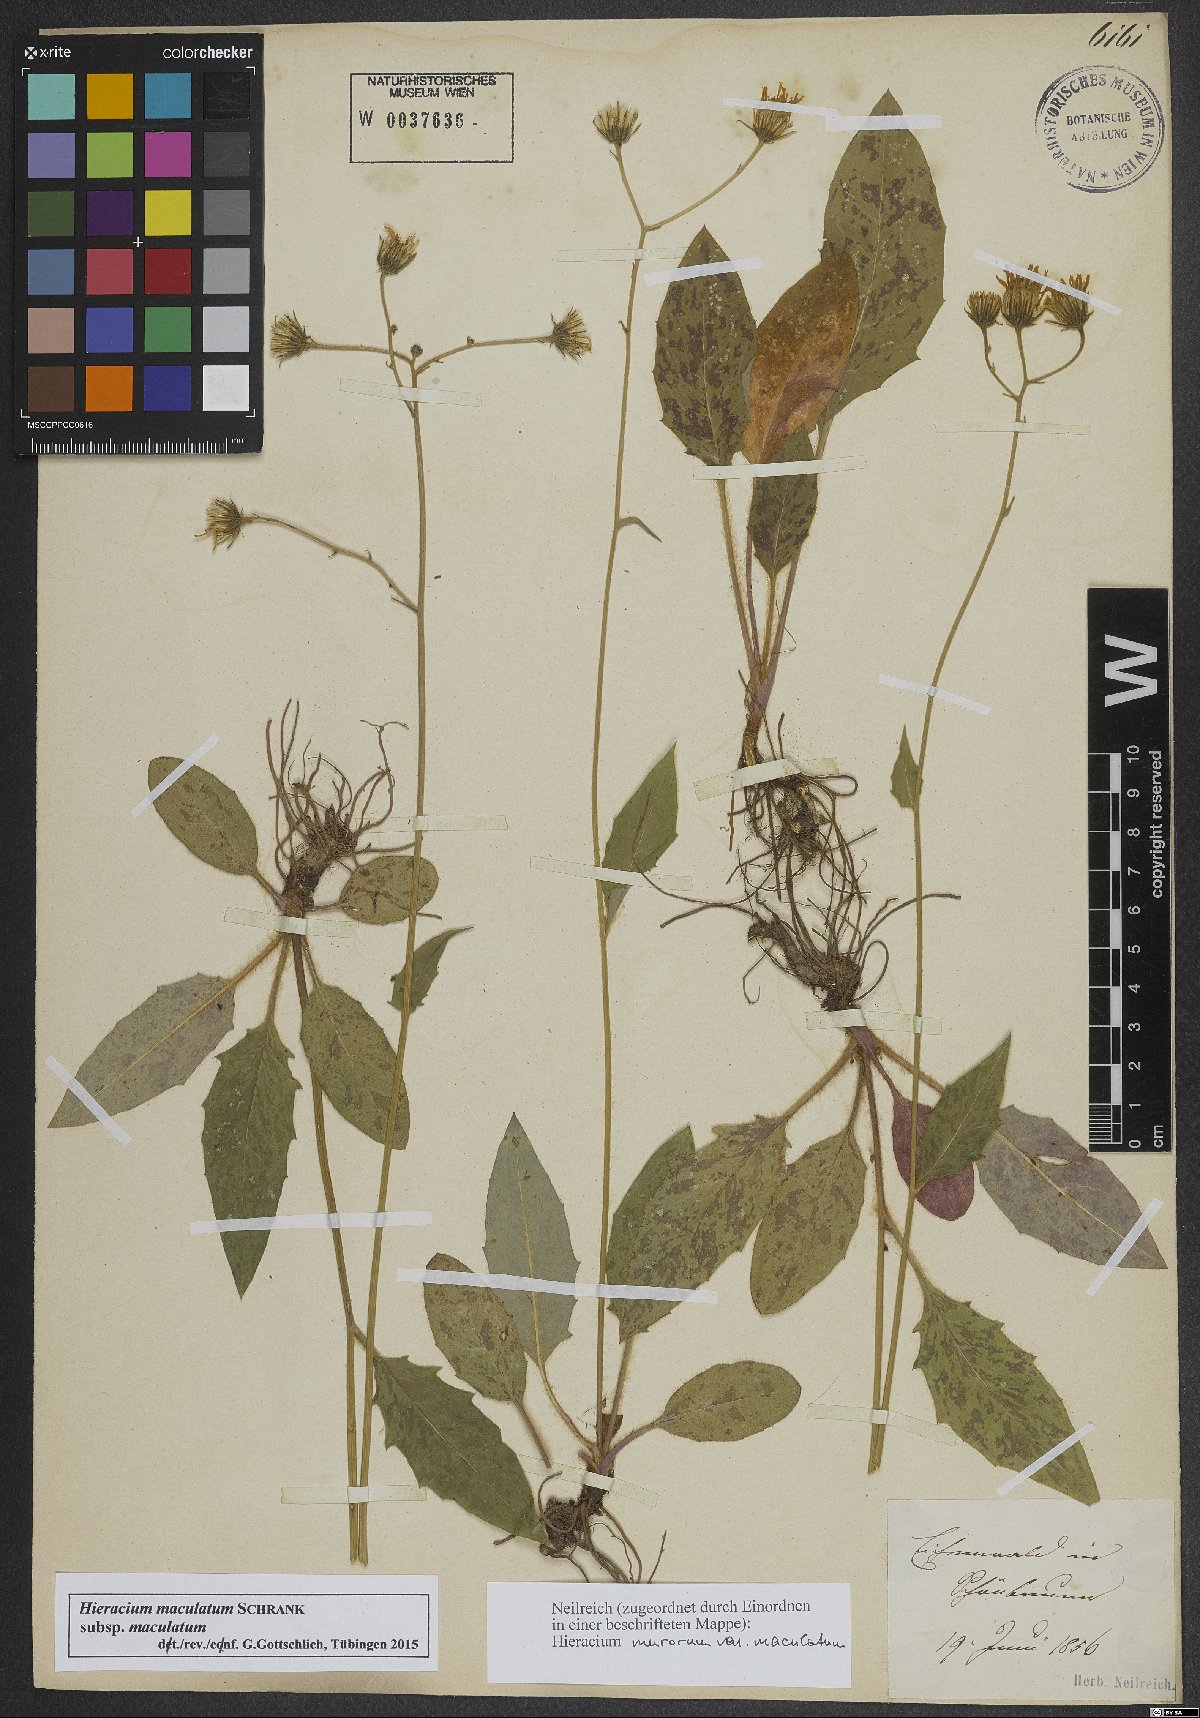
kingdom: Plantae
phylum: Tracheophyta
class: Magnoliopsida
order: Asterales
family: Asteraceae
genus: Hieracium
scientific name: Hieracium maculatum
